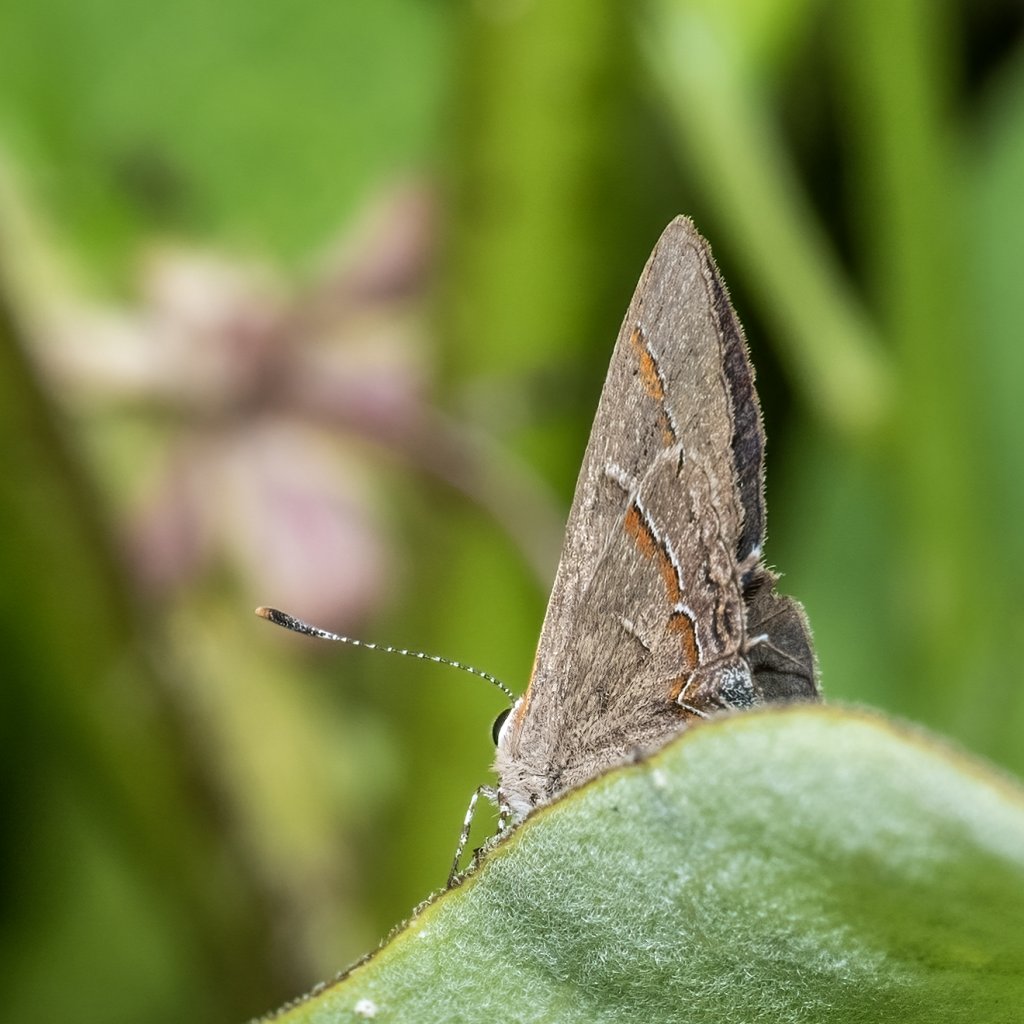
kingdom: Animalia
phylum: Arthropoda
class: Insecta
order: Lepidoptera
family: Lycaenidae
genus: Calycopis
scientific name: Calycopis cecrops
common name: Red-banded Hairstreak
